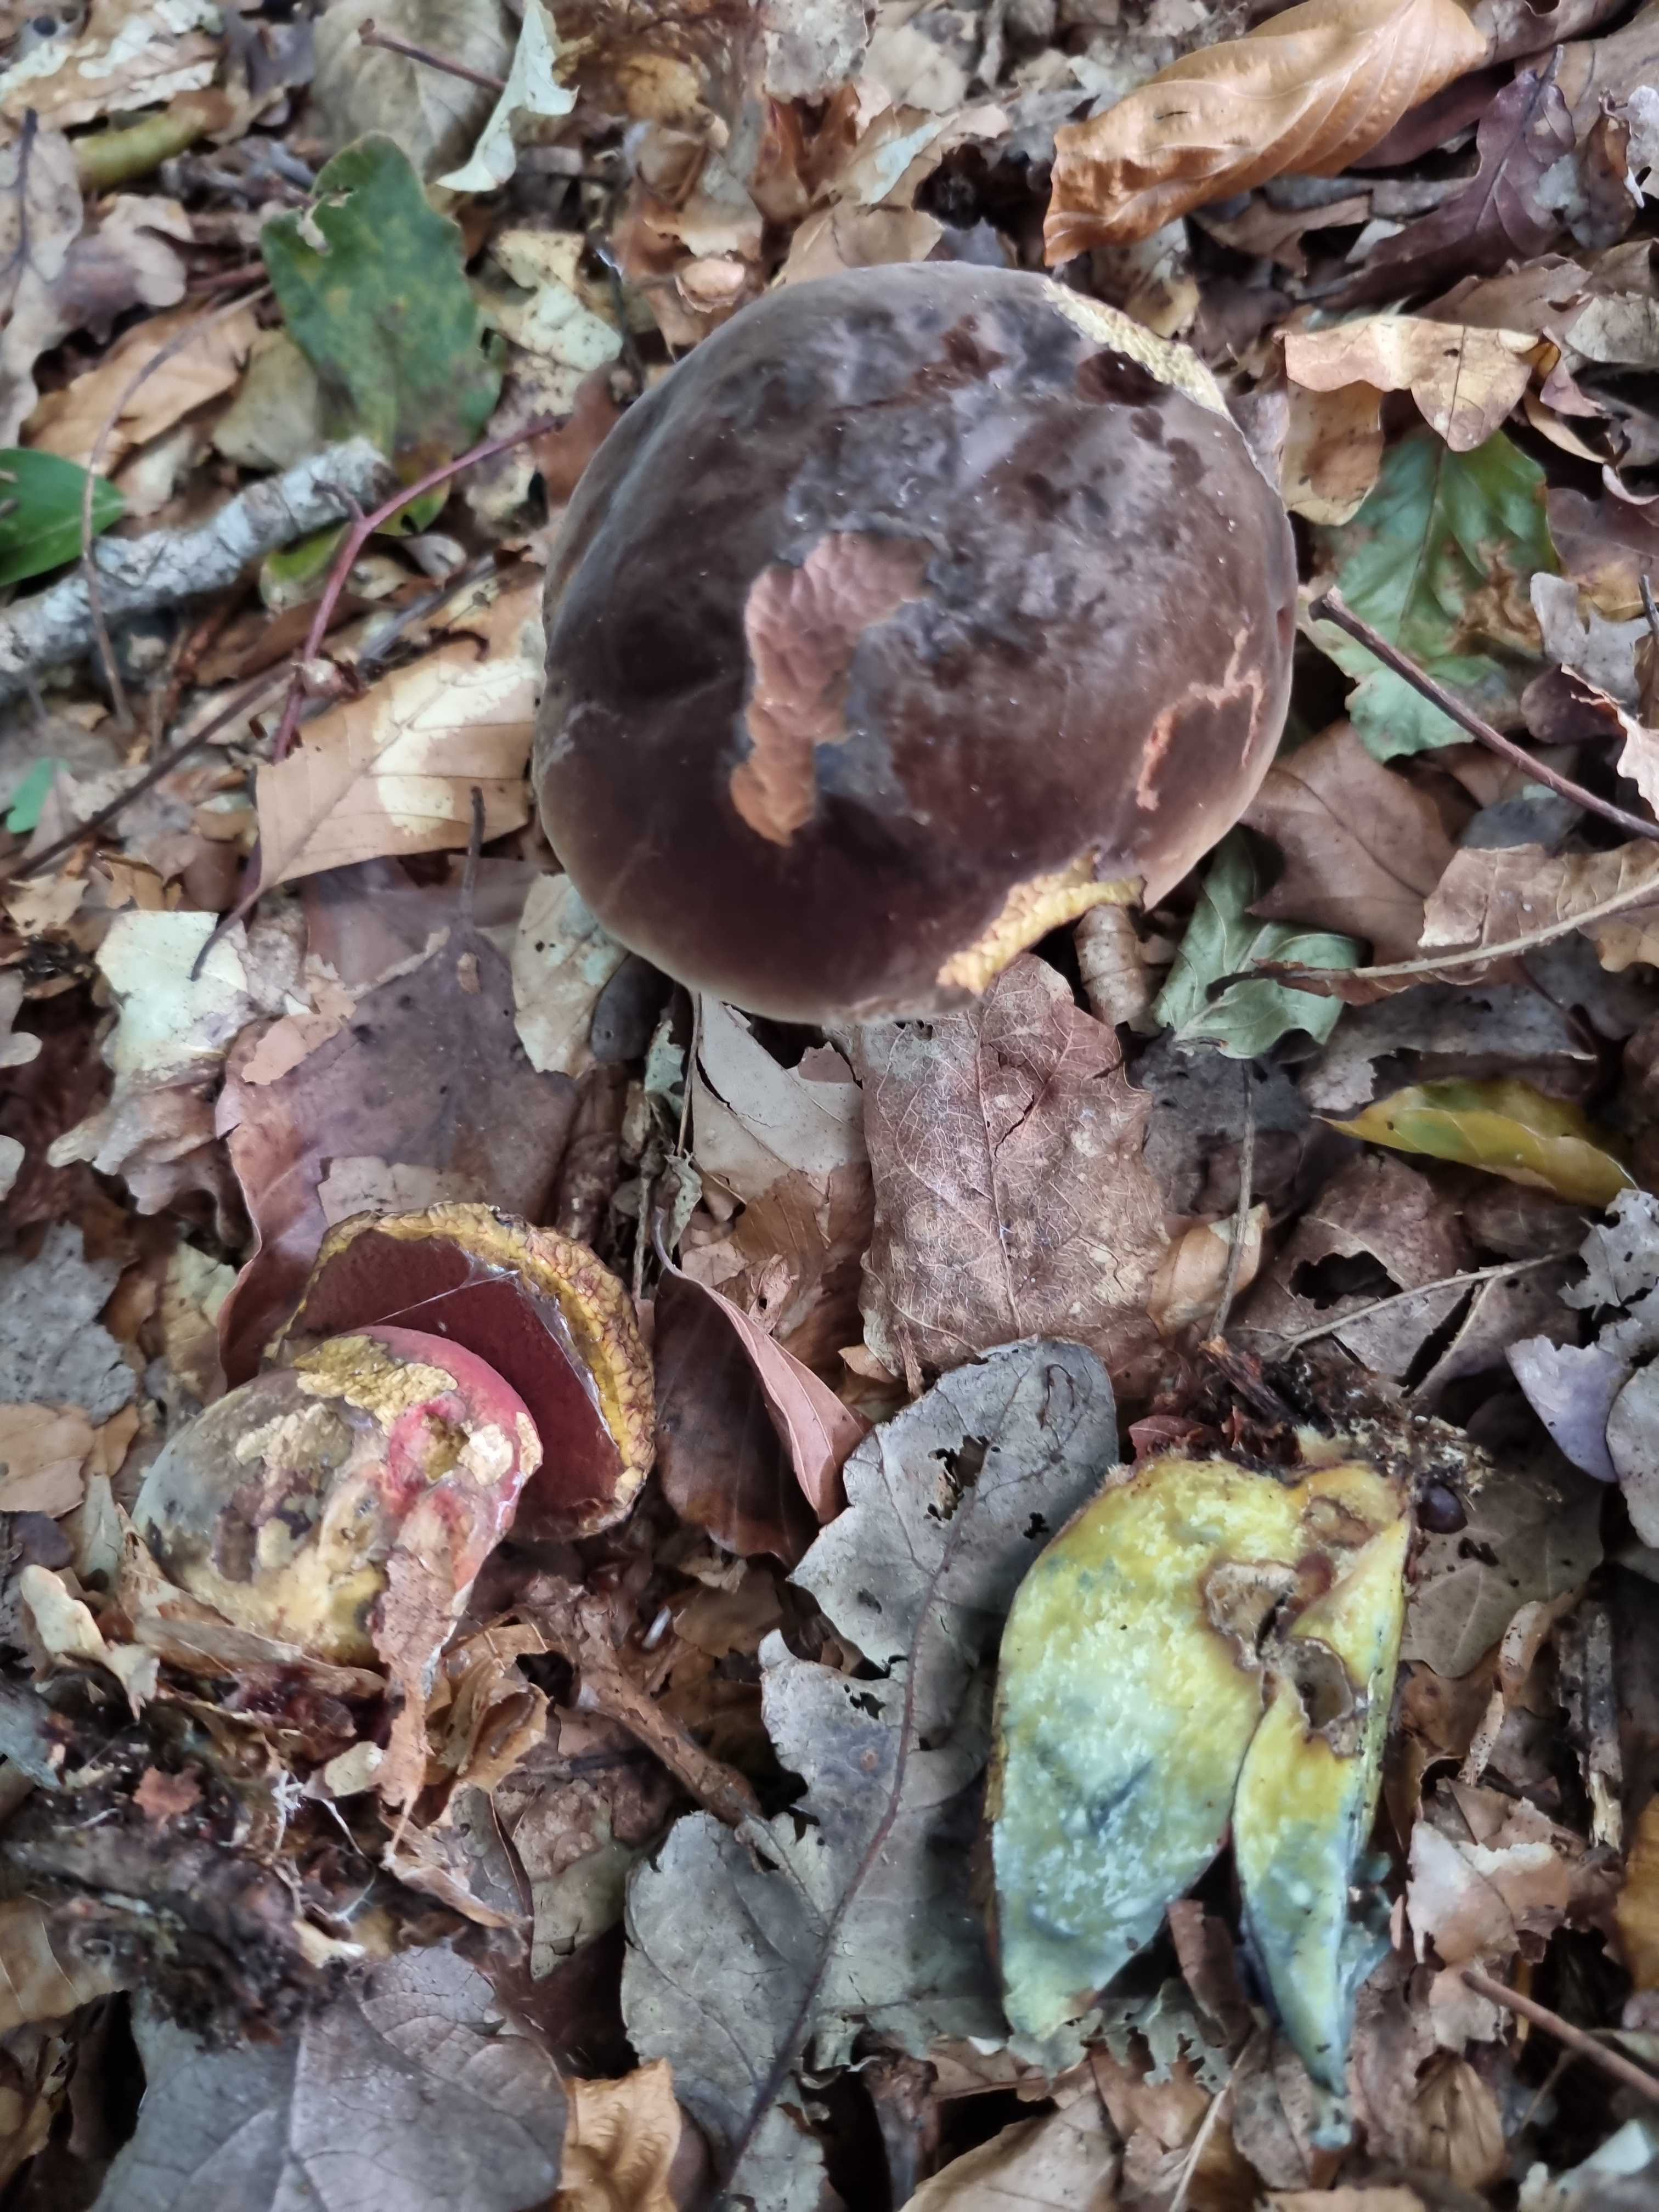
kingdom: Fungi
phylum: Basidiomycota
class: Agaricomycetes
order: Boletales
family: Boletaceae
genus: Neoboletus
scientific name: Neoboletus erythropus
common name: punktstokket indigorørhat
